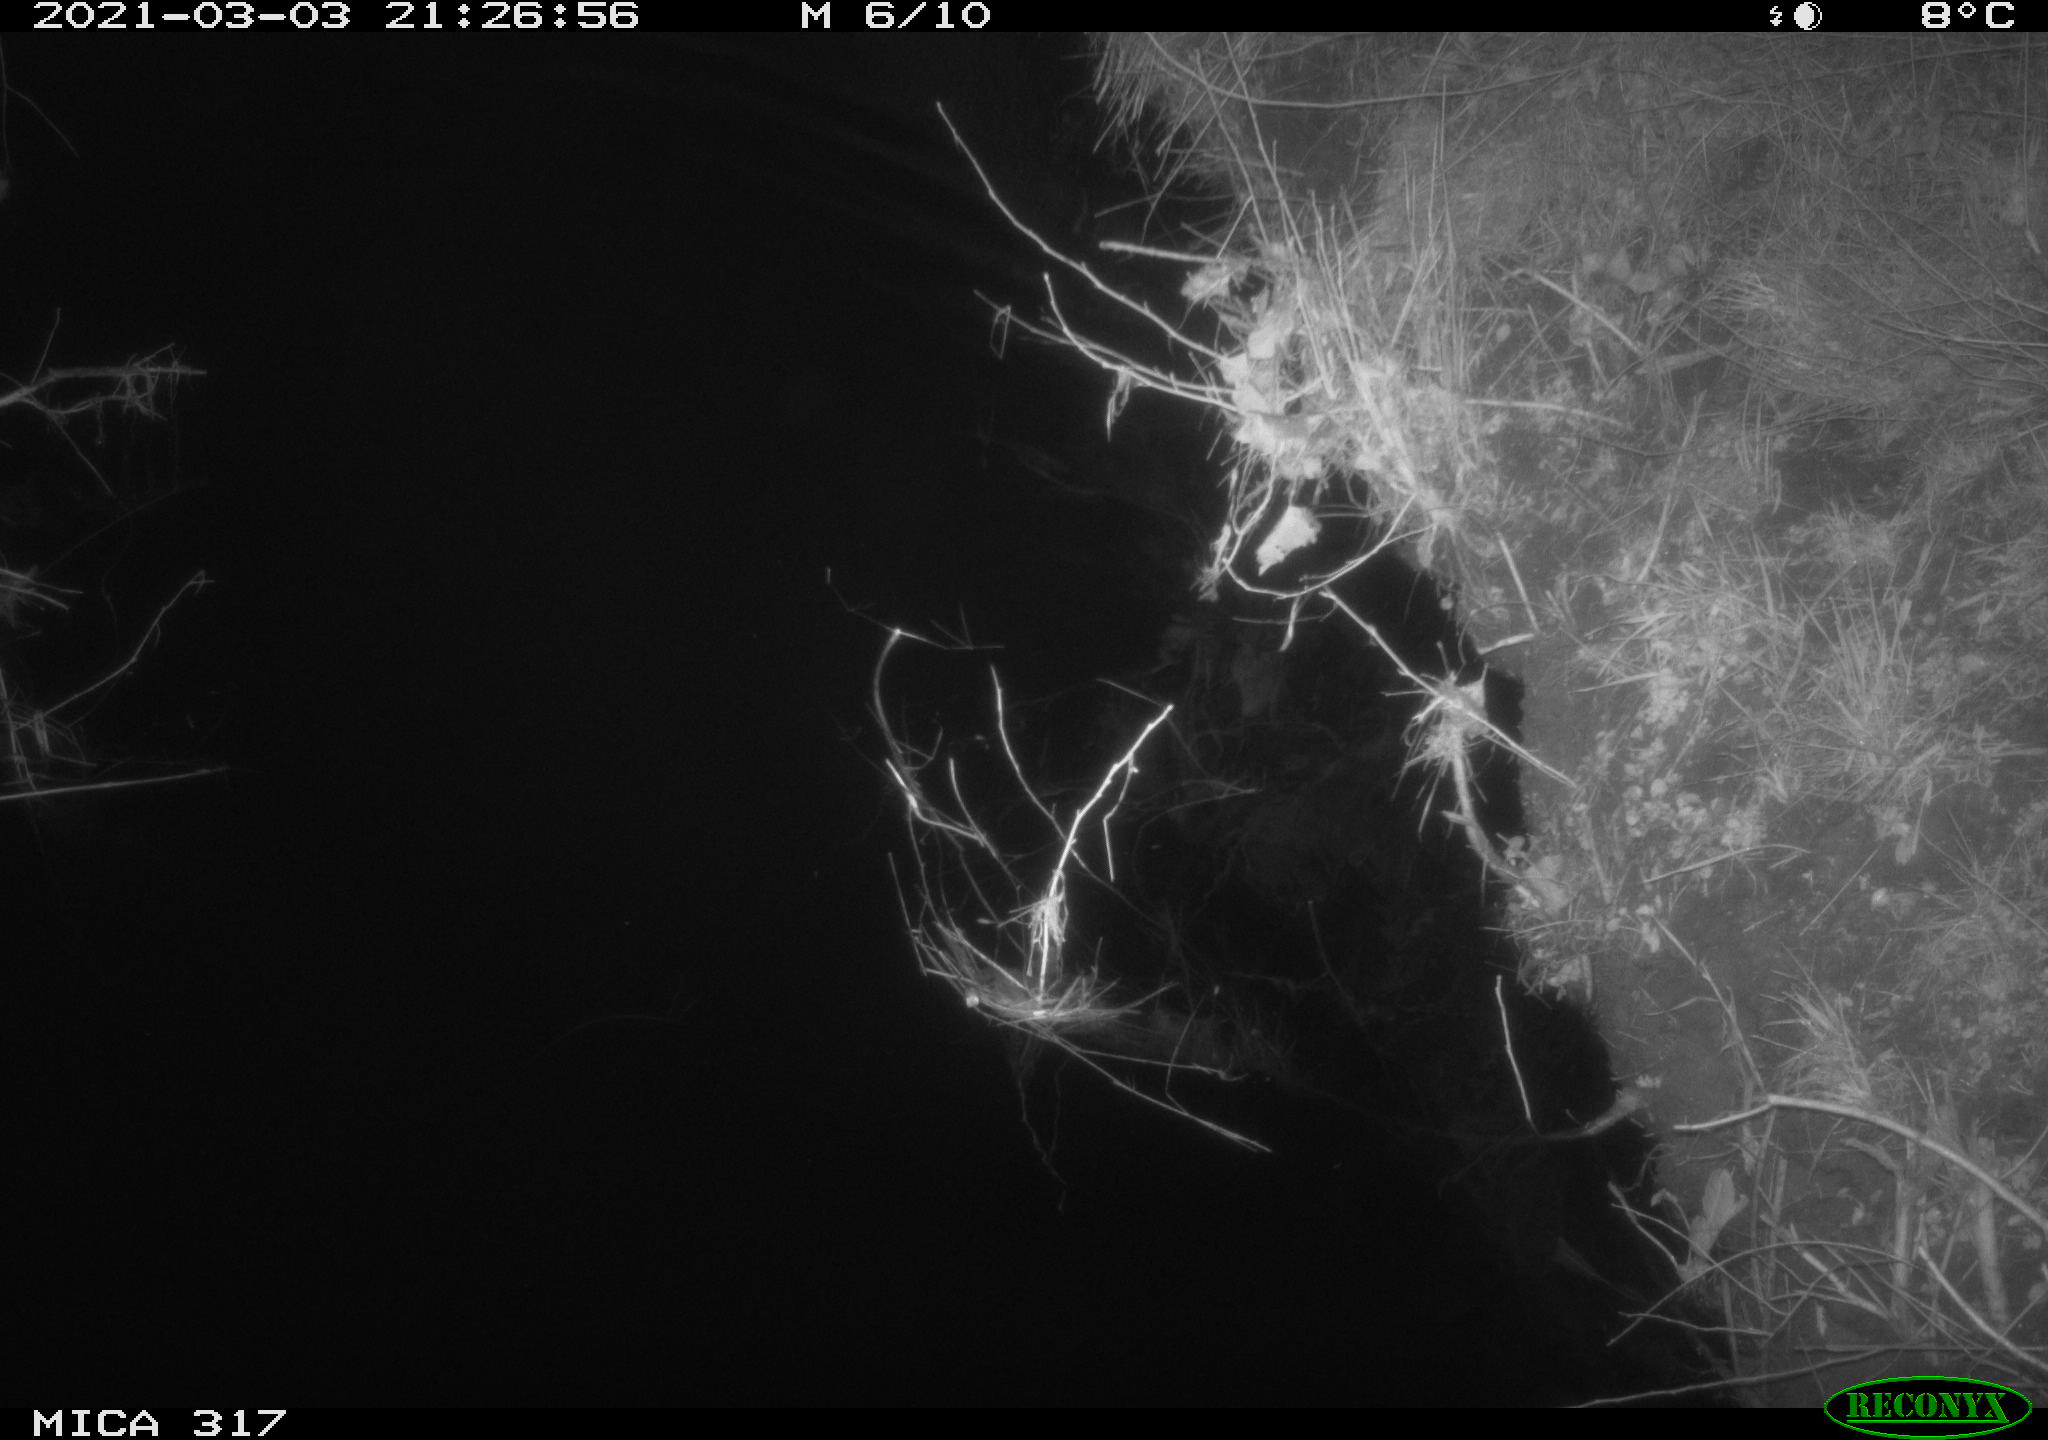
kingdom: Animalia
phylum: Chordata
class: Aves
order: Anseriformes
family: Anatidae
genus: Anas
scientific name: Anas platyrhynchos
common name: Mallard
